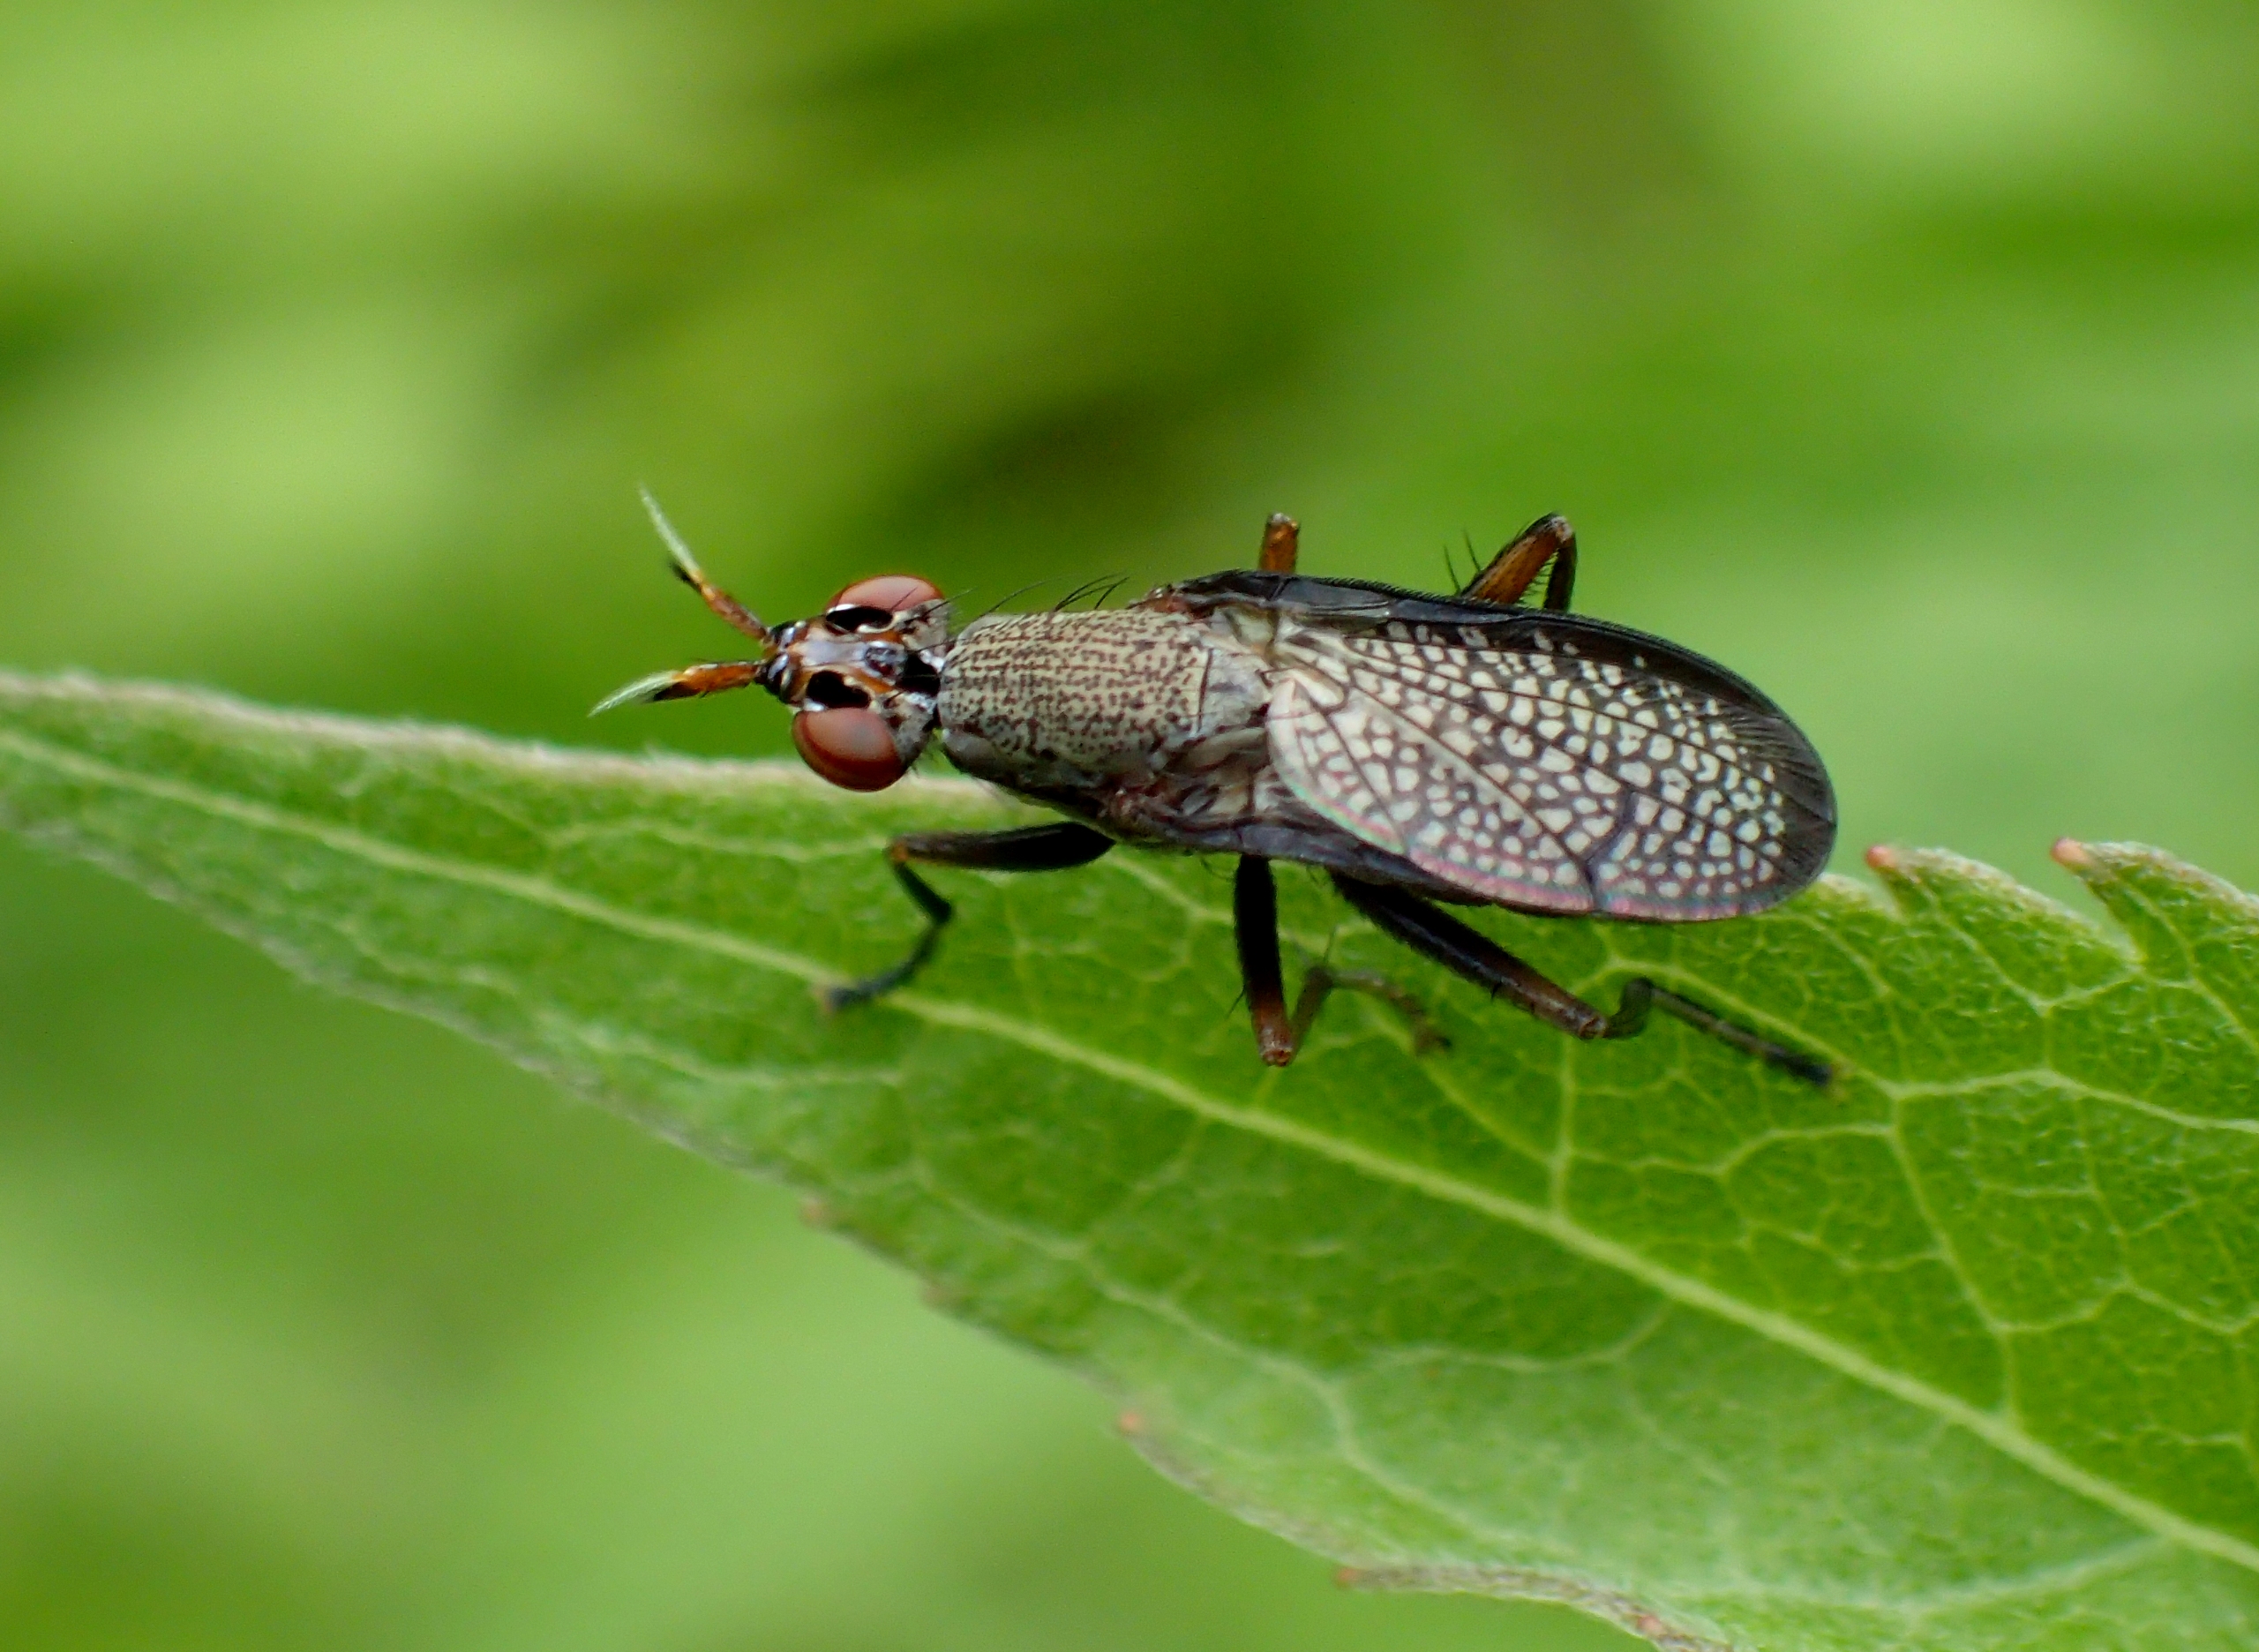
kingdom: Animalia
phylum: Arthropoda
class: Insecta
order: Diptera
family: Sciomyzidae
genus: Coremacera
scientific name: Coremacera marginata
